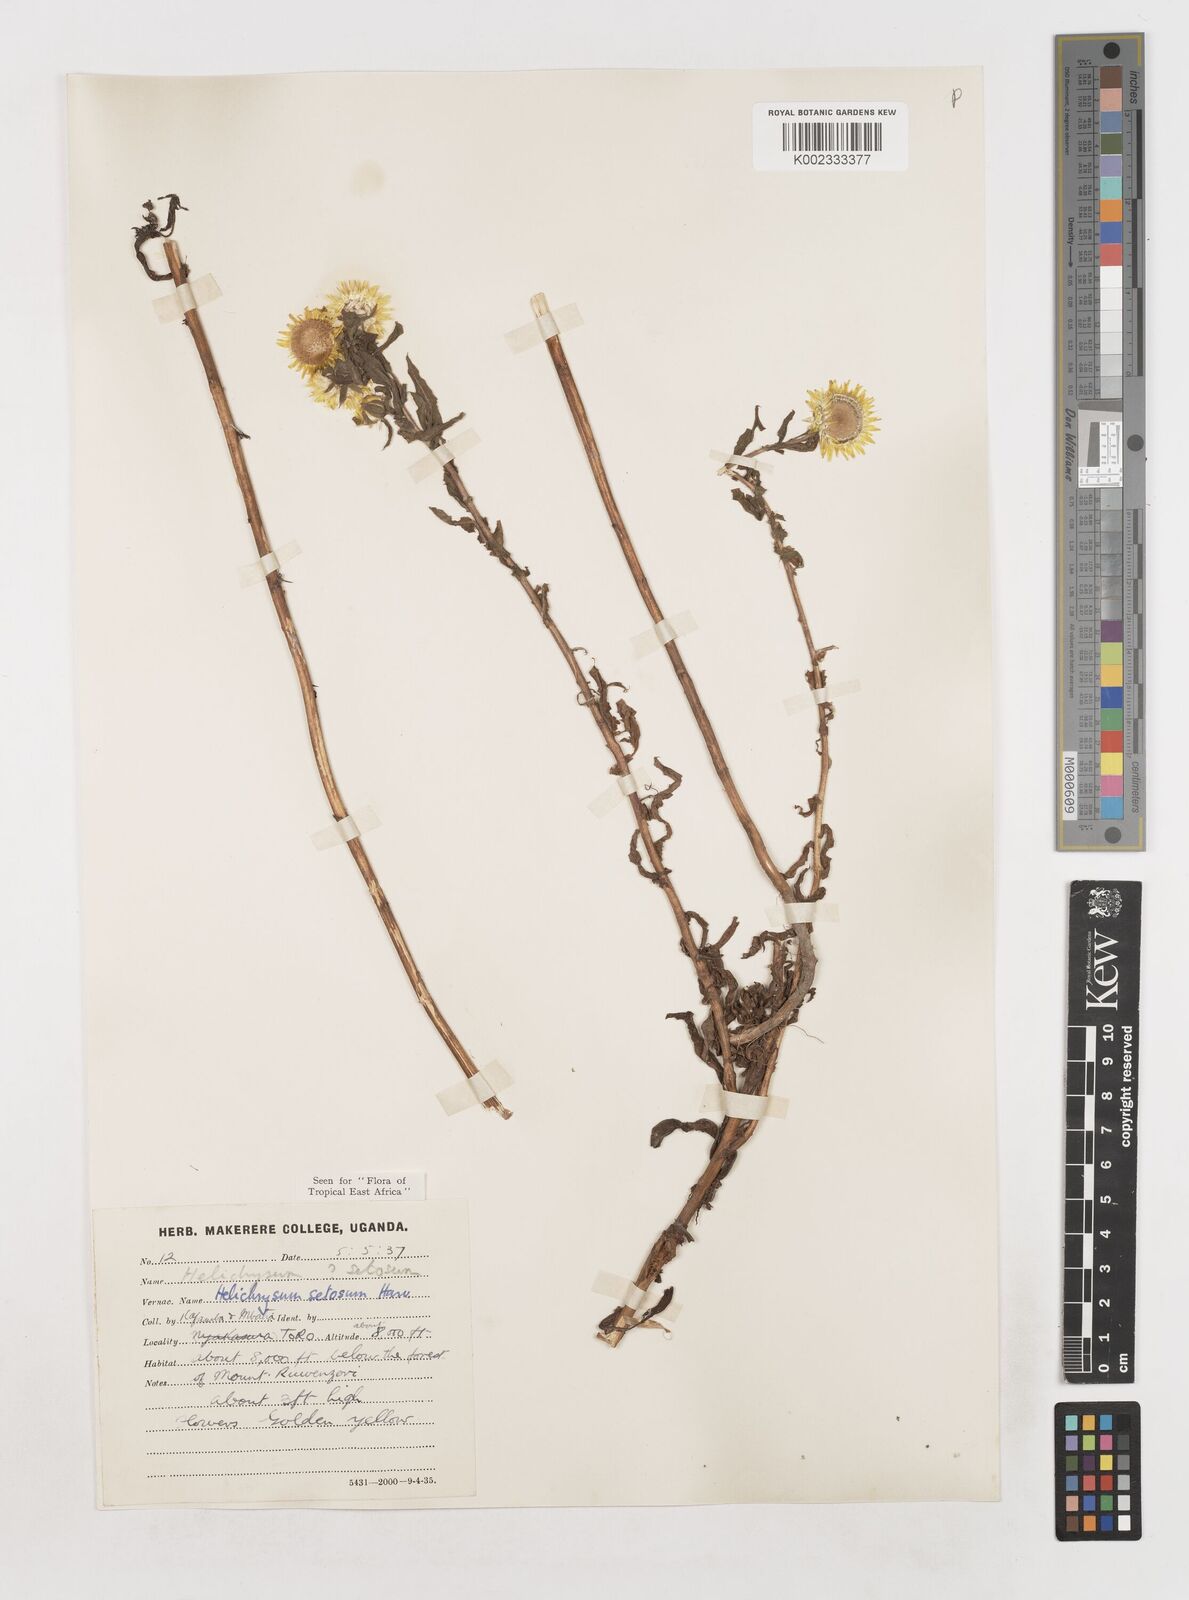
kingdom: Plantae
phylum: Tracheophyta
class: Magnoliopsida
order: Asterales
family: Asteraceae
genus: Helichrysum
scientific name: Helichrysum setosum
